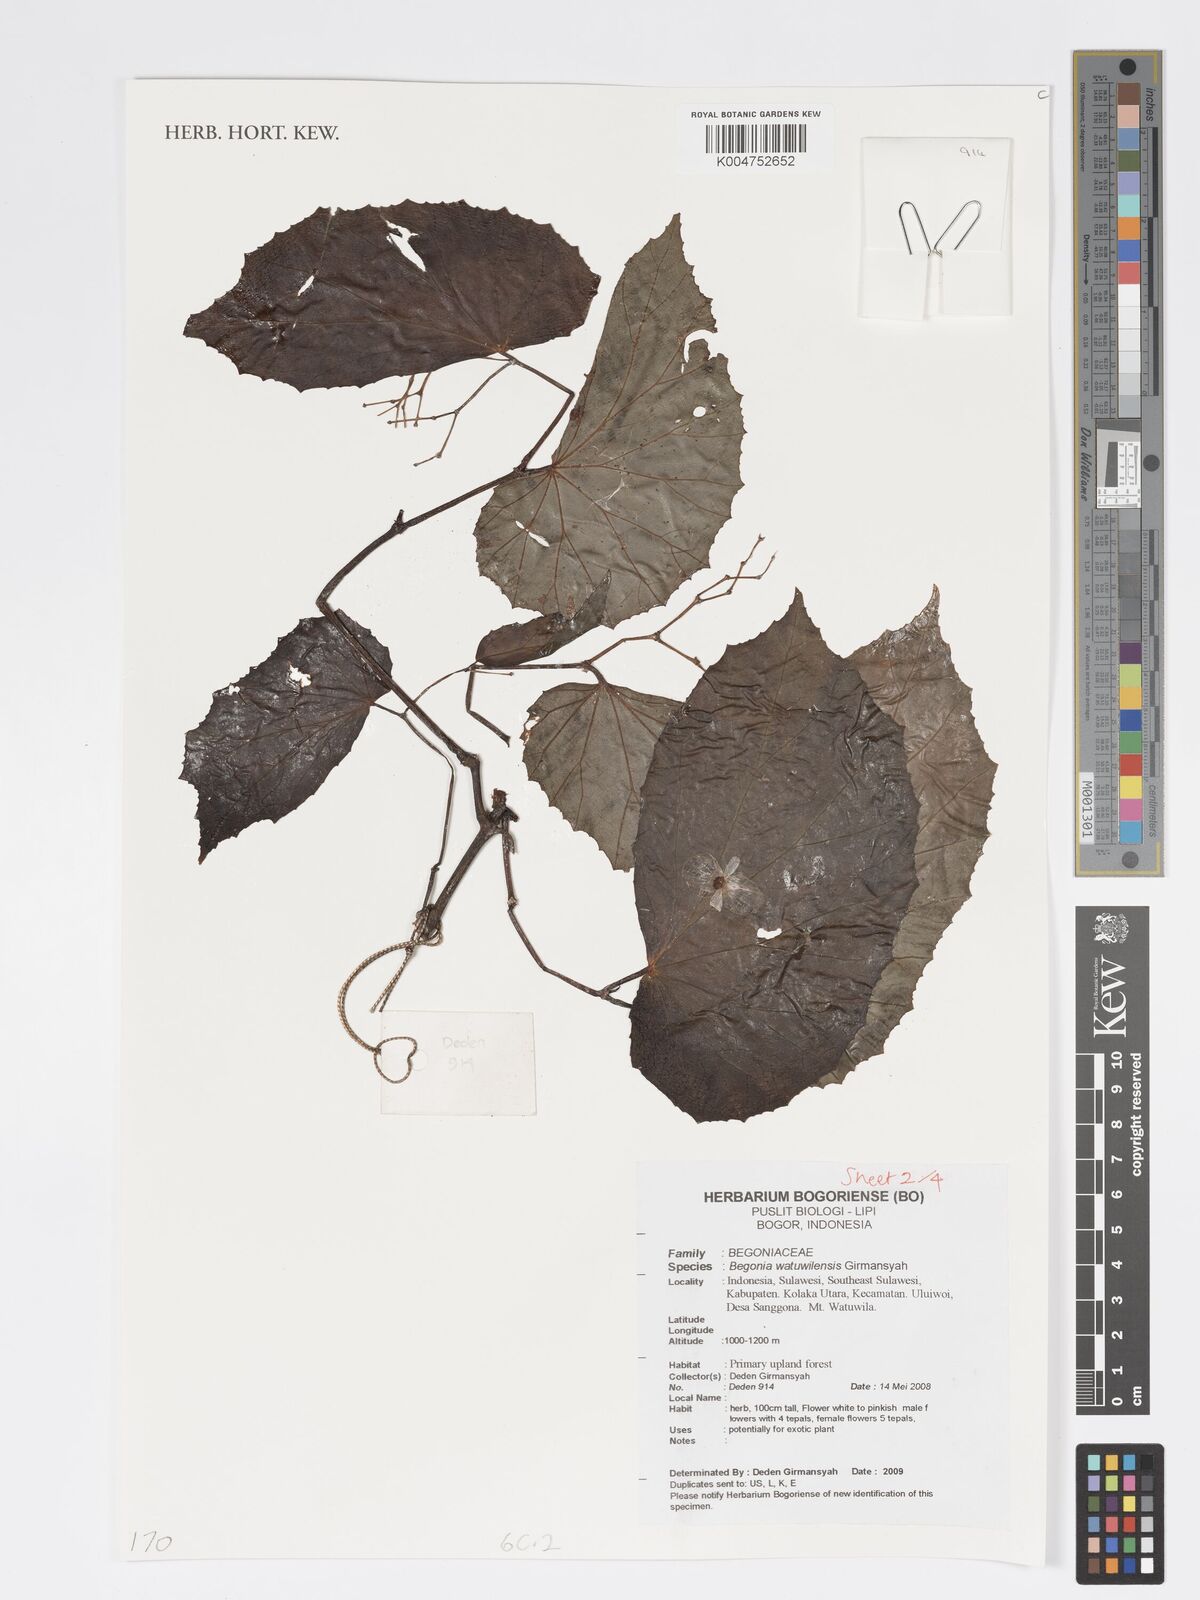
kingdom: Plantae
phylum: Tracheophyta
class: Magnoliopsida
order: Cucurbitales
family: Begoniaceae
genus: Begonia
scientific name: Begonia watuwilensis
